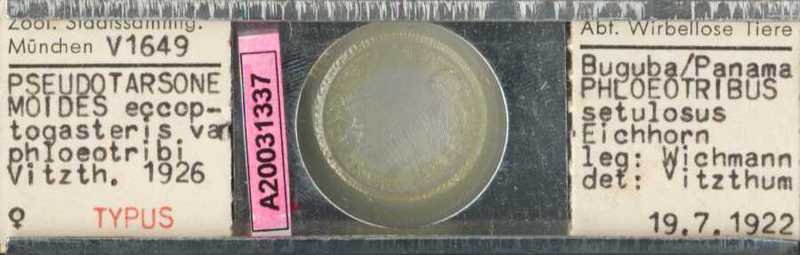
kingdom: Animalia
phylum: Arthropoda
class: Arachnida
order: Trombidiformes
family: Tarsonemidae
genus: Pseudotarsonemoides
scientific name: Pseudotarsonemoides eccoptogasteris
